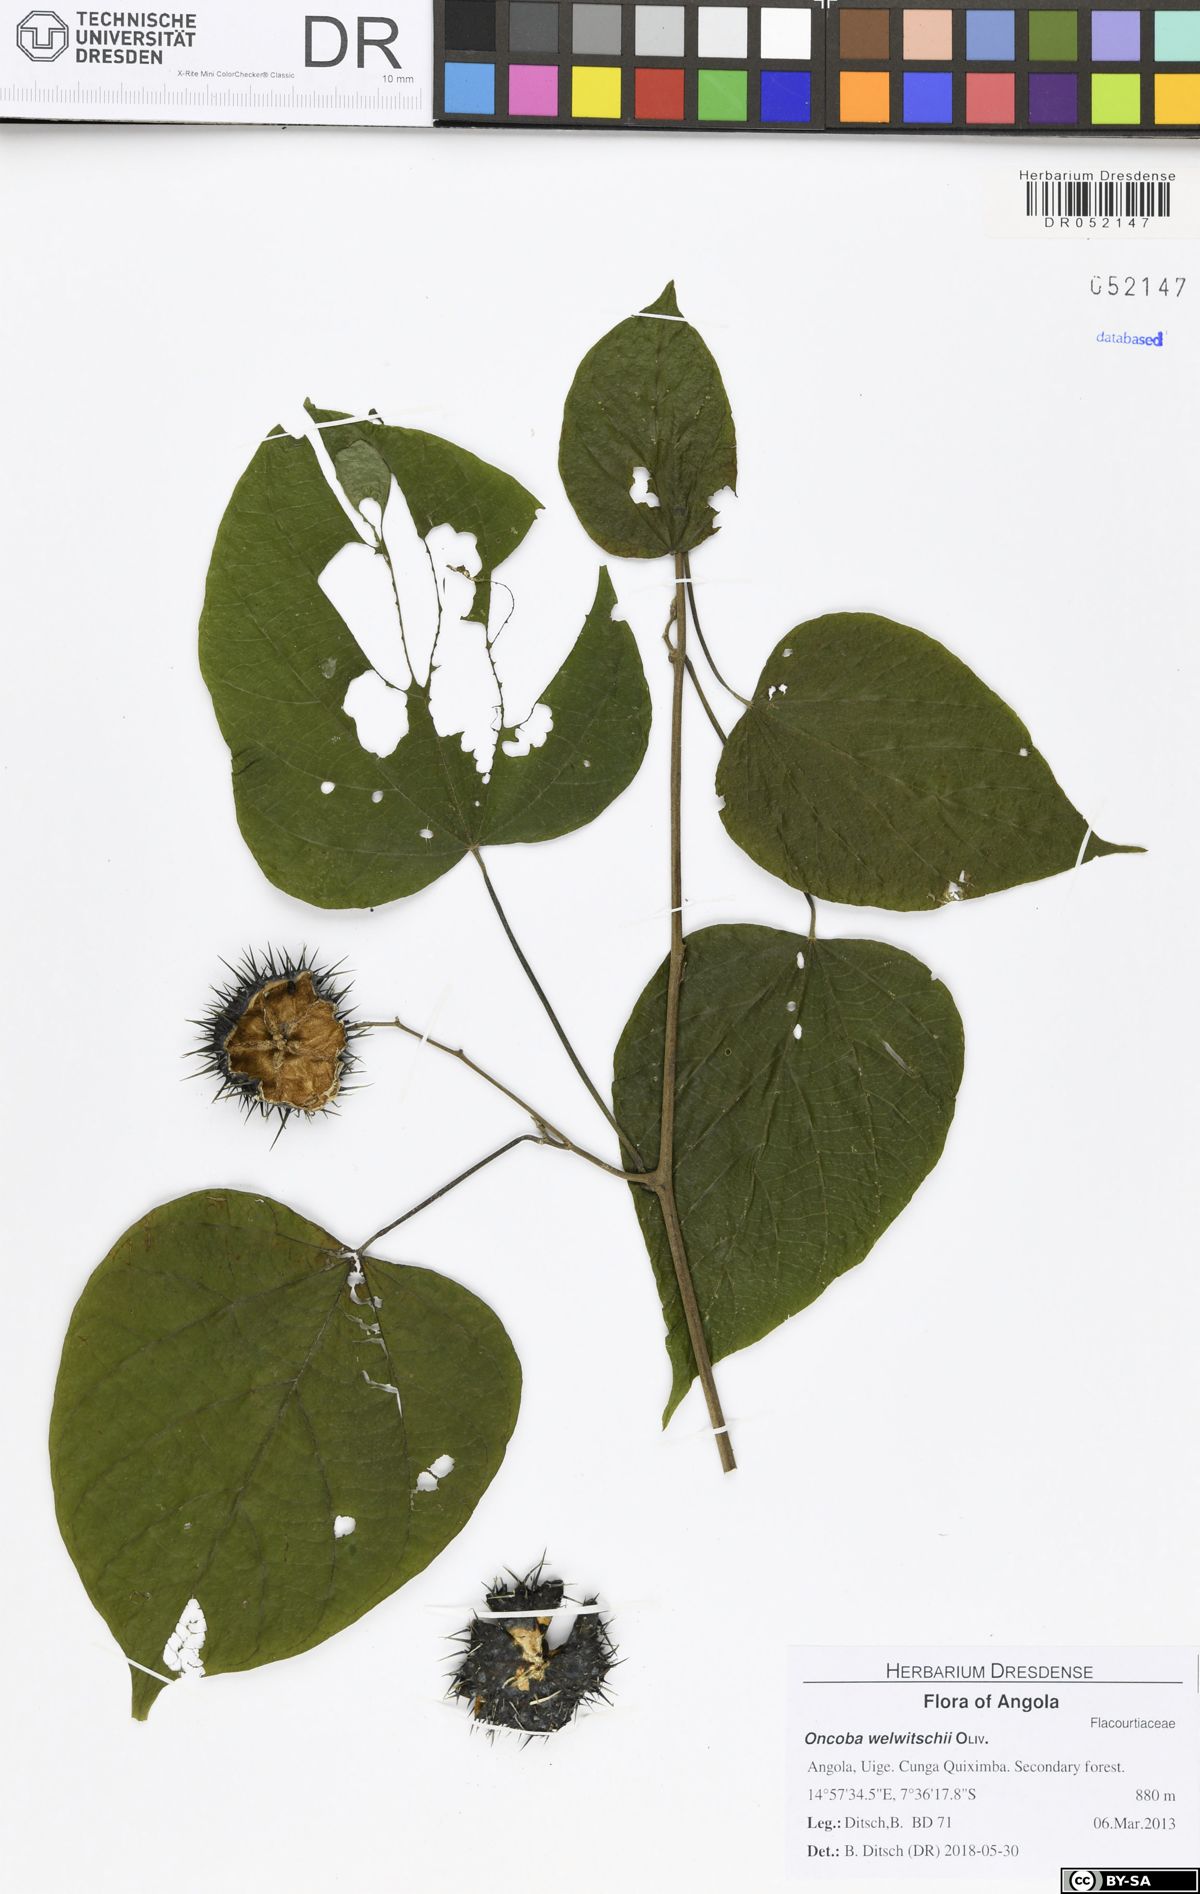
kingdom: Plantae
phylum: Tracheophyta
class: Magnoliopsida
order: Malpighiales
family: Achariaceae
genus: Caloncoba
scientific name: Caloncoba welwitschii
